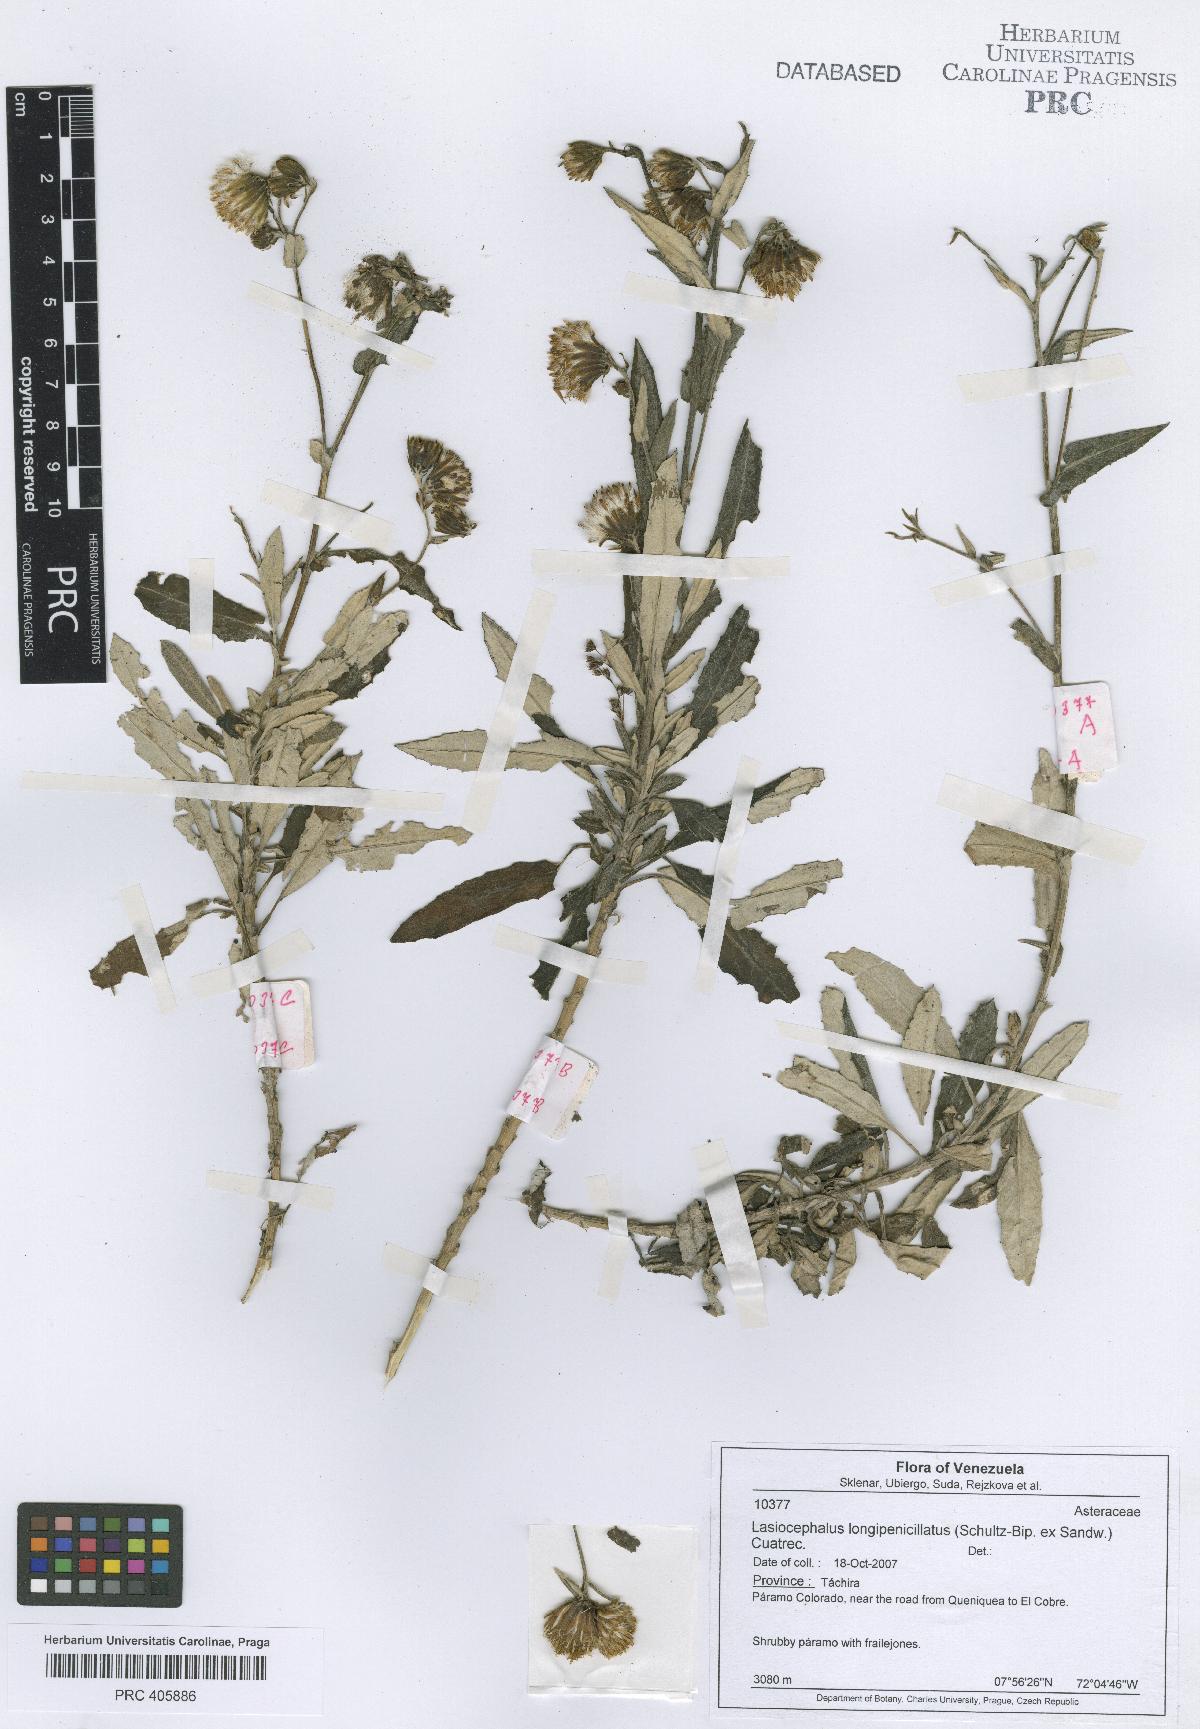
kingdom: Plantae
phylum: Tracheophyta
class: Magnoliopsida
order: Asterales
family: Asteraceae
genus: Aetheolaena
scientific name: Aetheolaena longepenicillata
